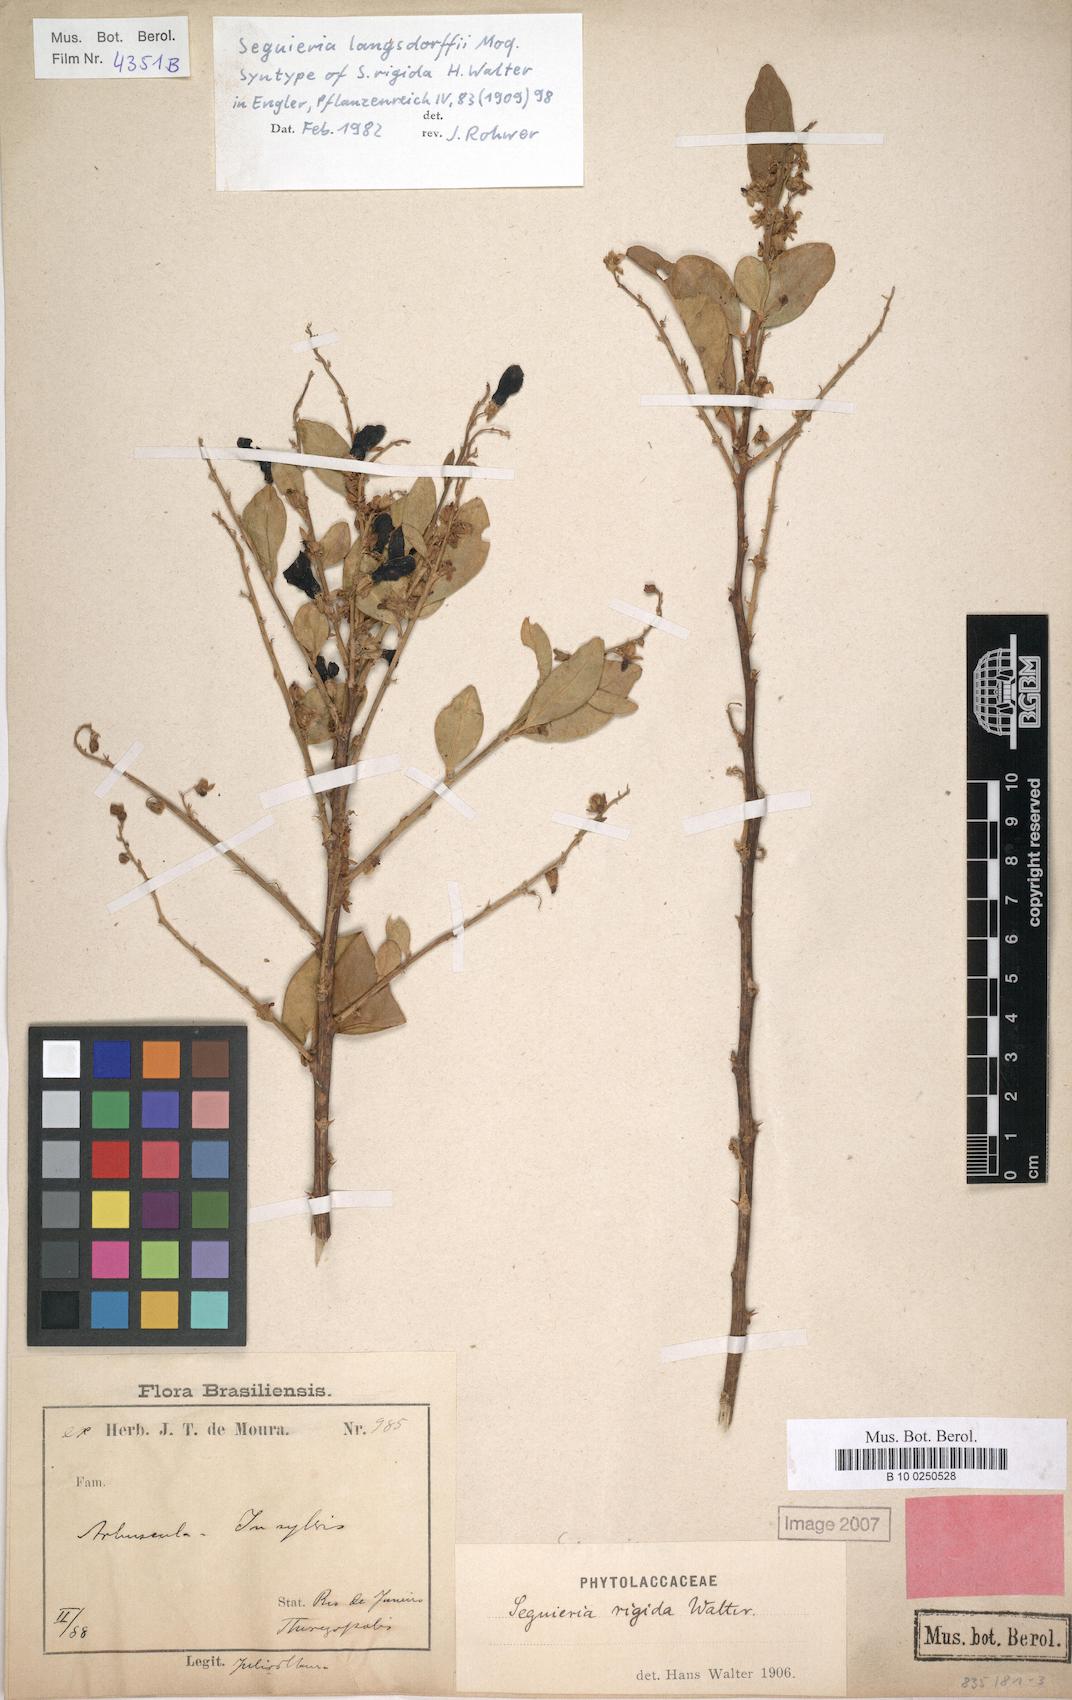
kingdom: Plantae
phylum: Tracheophyta
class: Magnoliopsida
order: Caryophyllales
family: Phytolaccaceae
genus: Seguieria
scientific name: Seguieria langsdorffii
